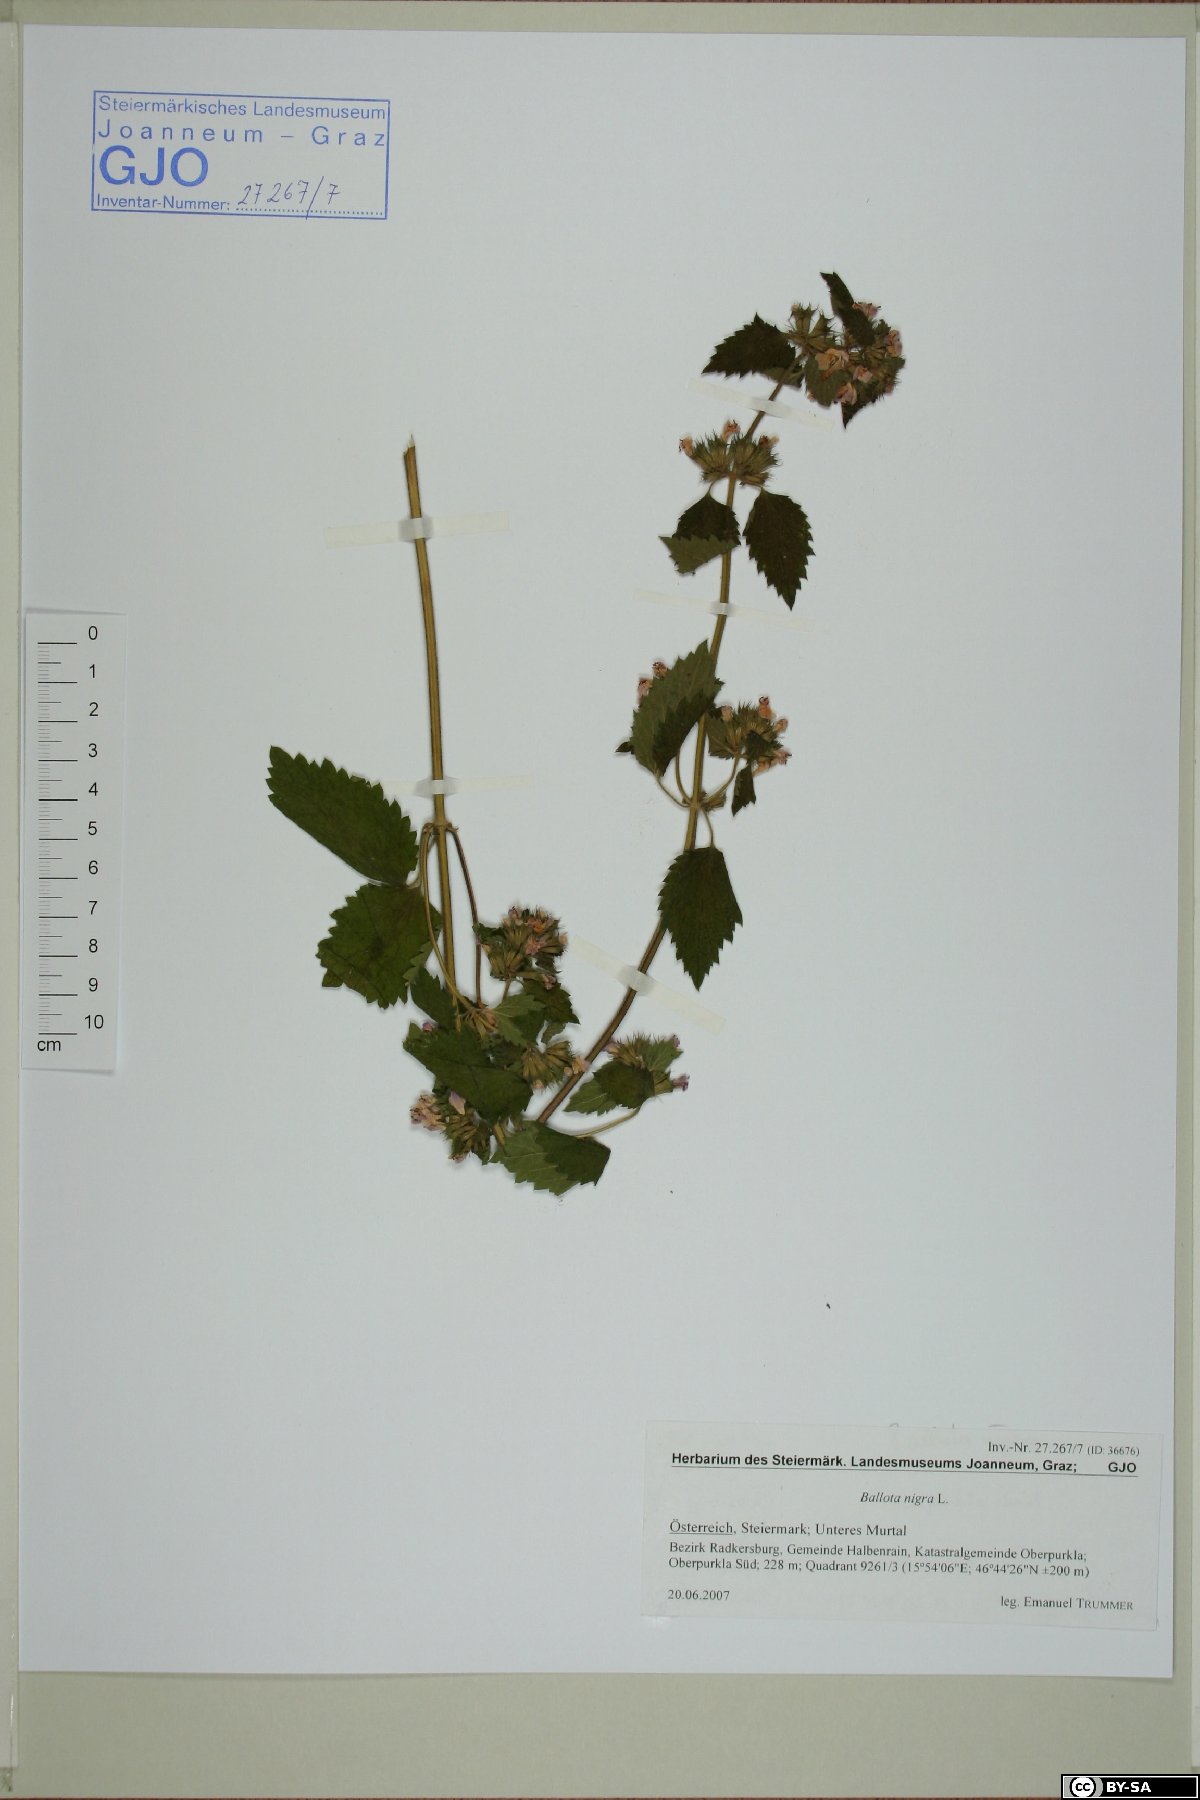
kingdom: Plantae
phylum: Tracheophyta
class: Magnoliopsida
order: Lamiales
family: Lamiaceae
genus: Ballota
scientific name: Ballota nigra
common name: Black horehound
